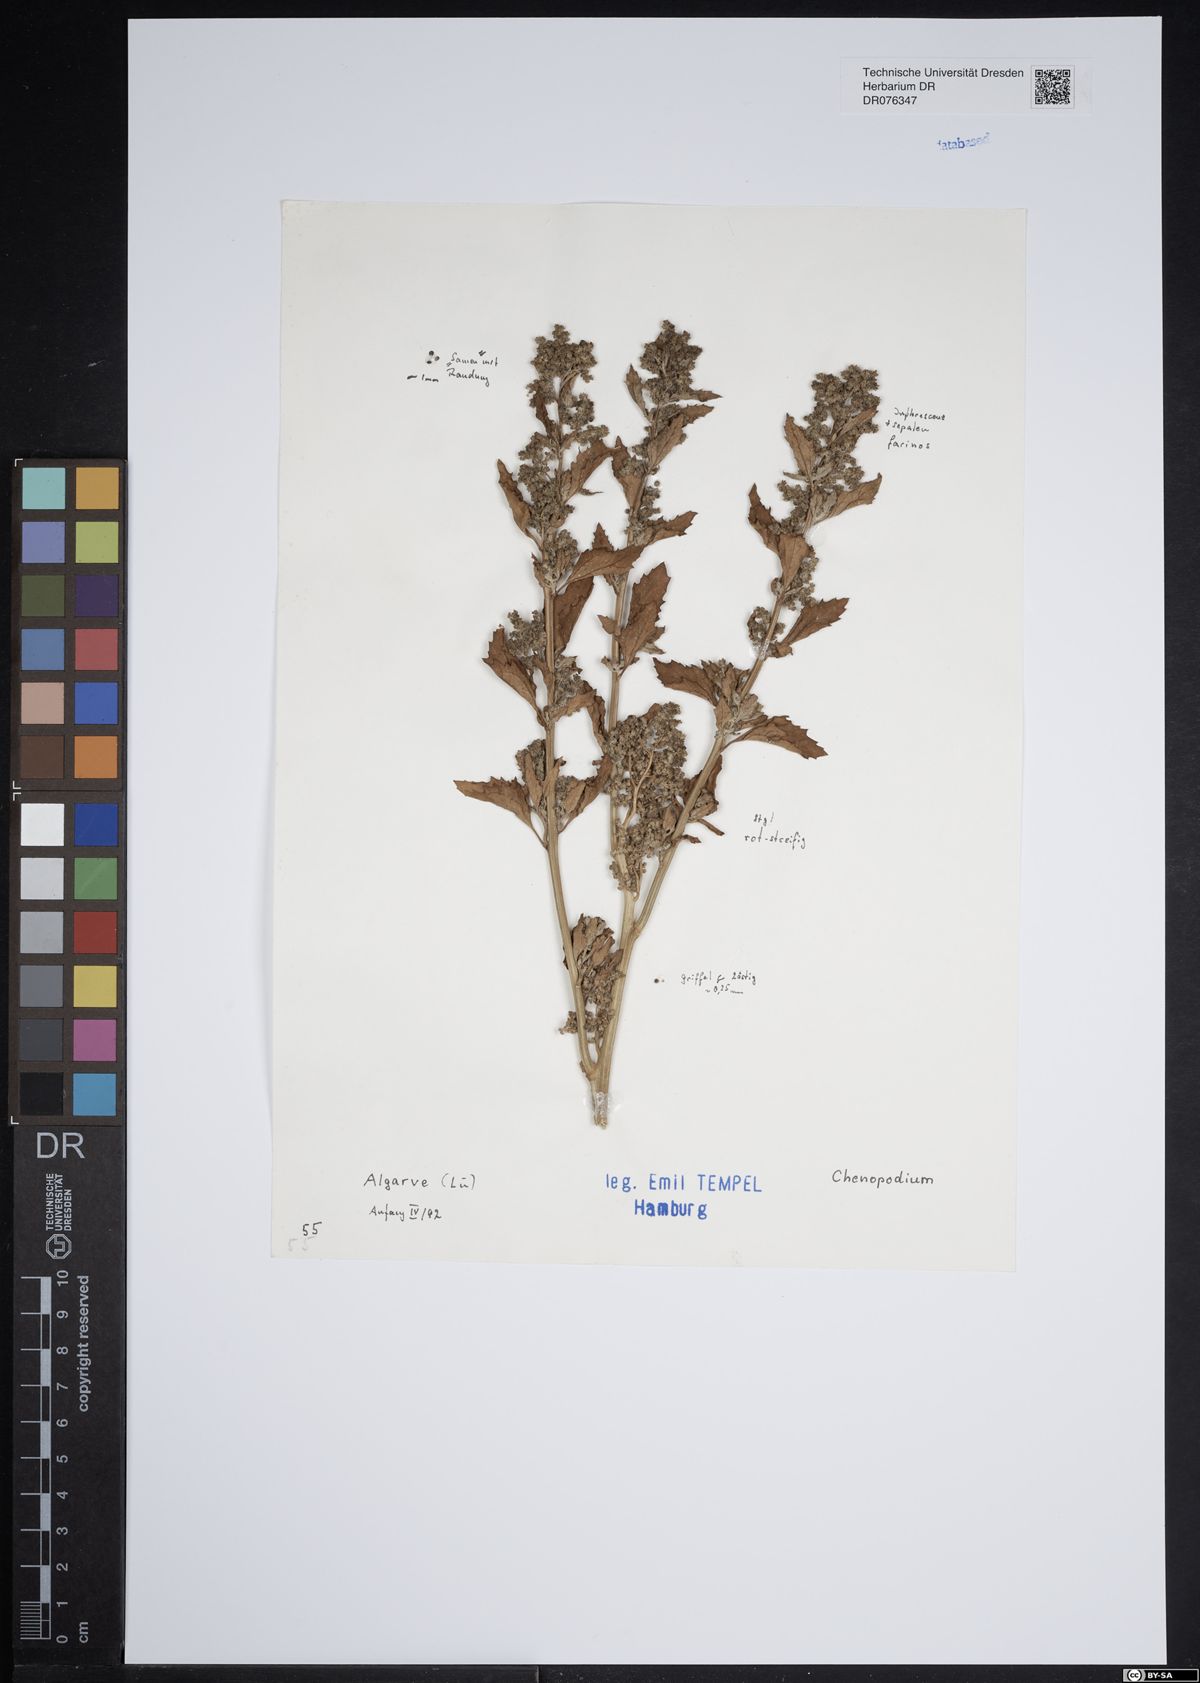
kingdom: Plantae
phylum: Tracheophyta
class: Magnoliopsida
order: Caryophyllales
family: Amaranthaceae
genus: Chenopodium
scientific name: Chenopodium
